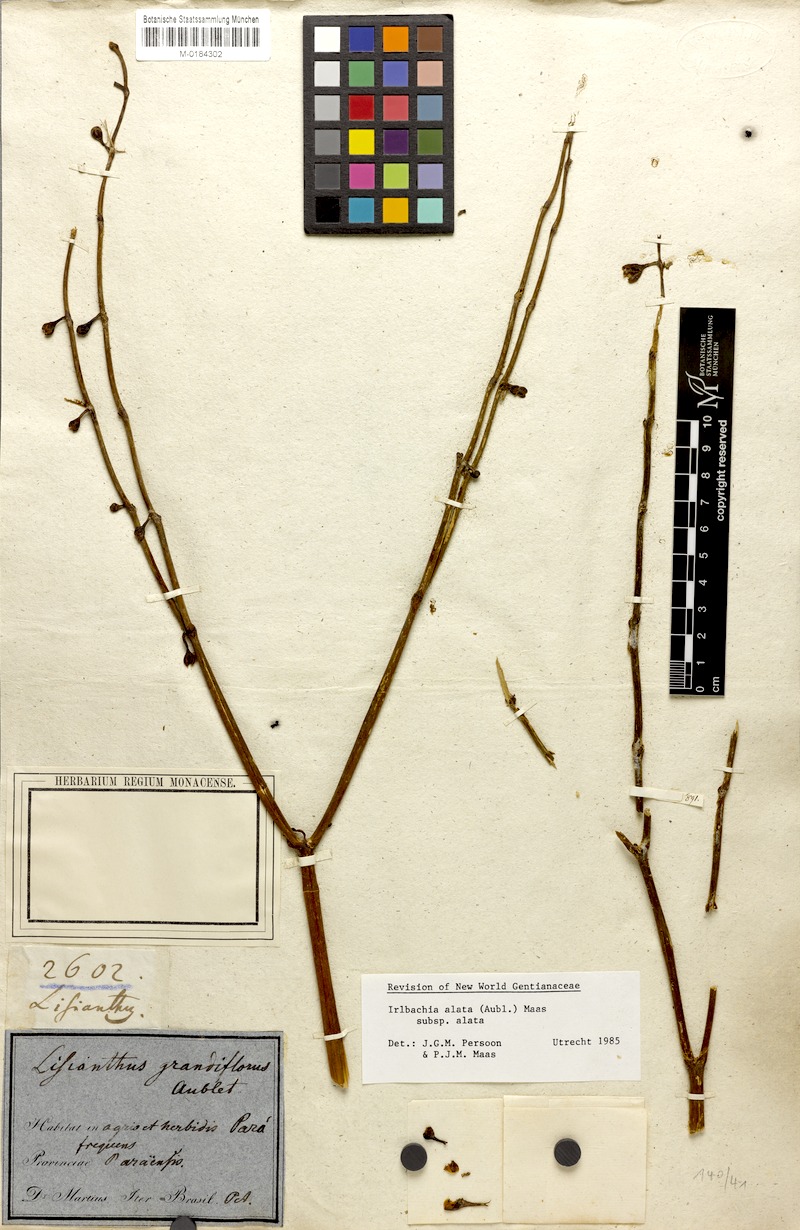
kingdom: Plantae
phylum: Tracheophyta
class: Magnoliopsida
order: Gentianales
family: Gentianaceae
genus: Chelonanthus
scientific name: Chelonanthus alatus
